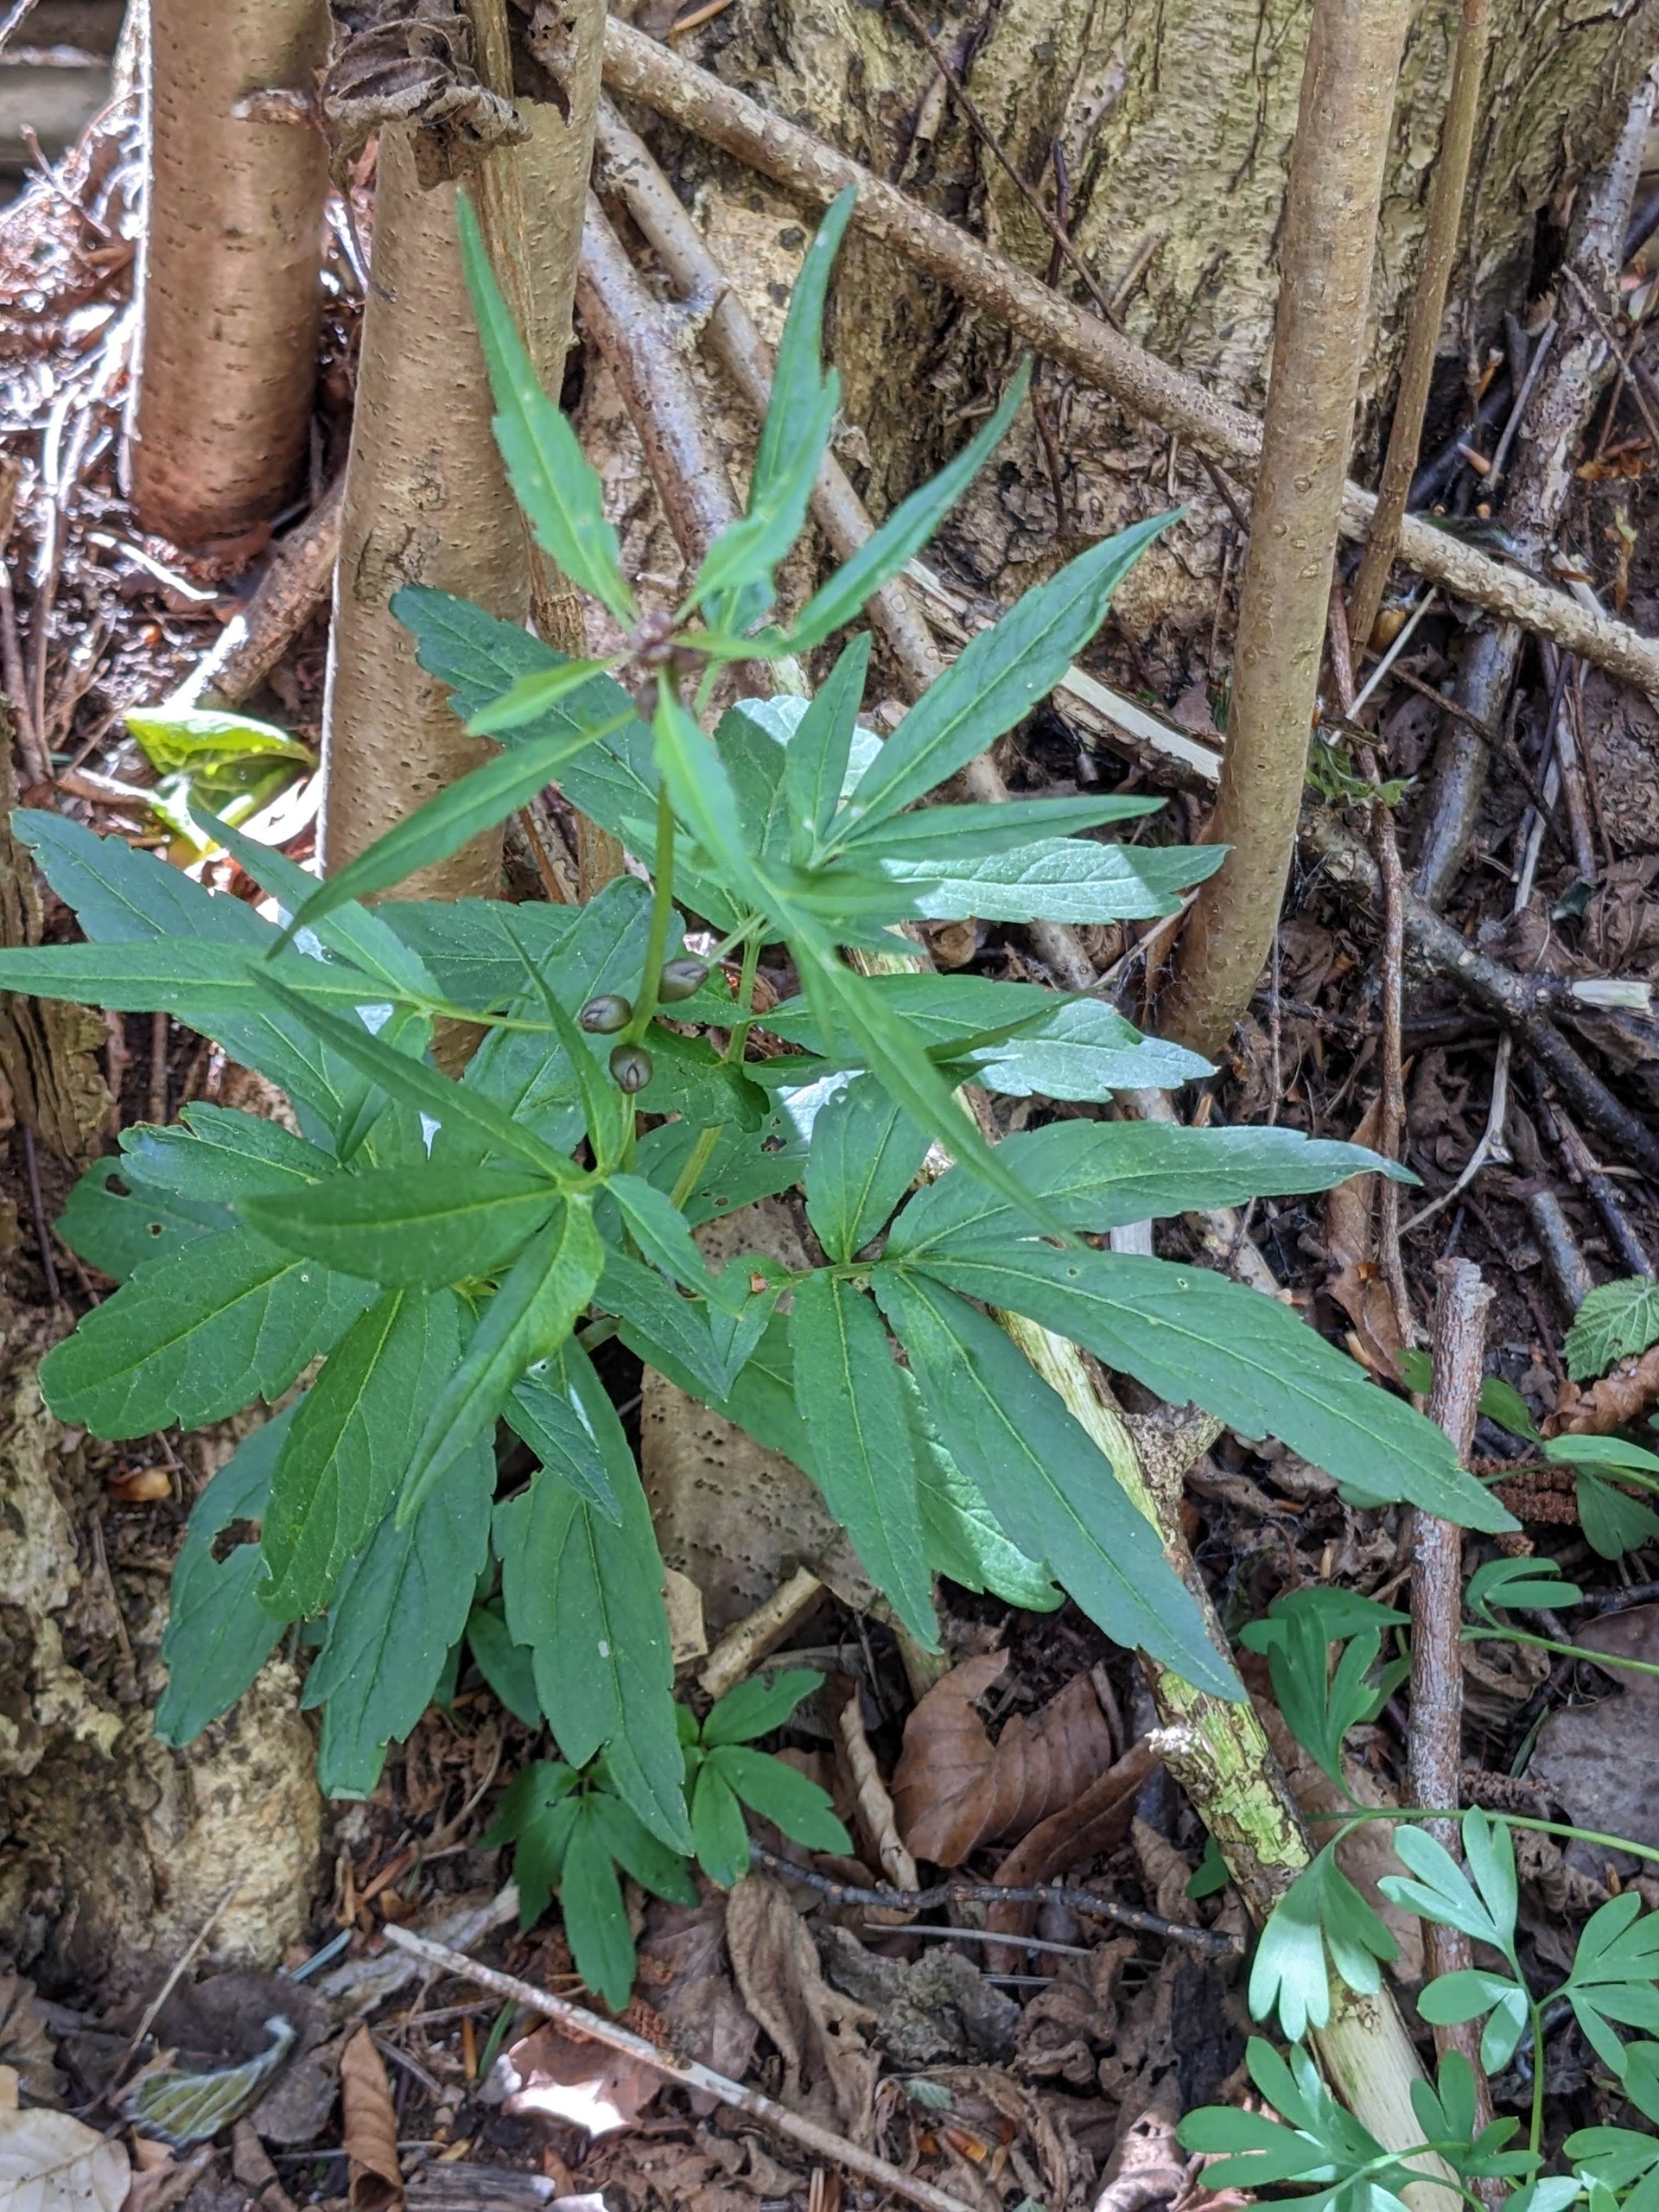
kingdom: Plantae
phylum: Tracheophyta
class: Magnoliopsida
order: Brassicales
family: Brassicaceae
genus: Cardamine
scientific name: Cardamine bulbifera
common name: Tandrod
